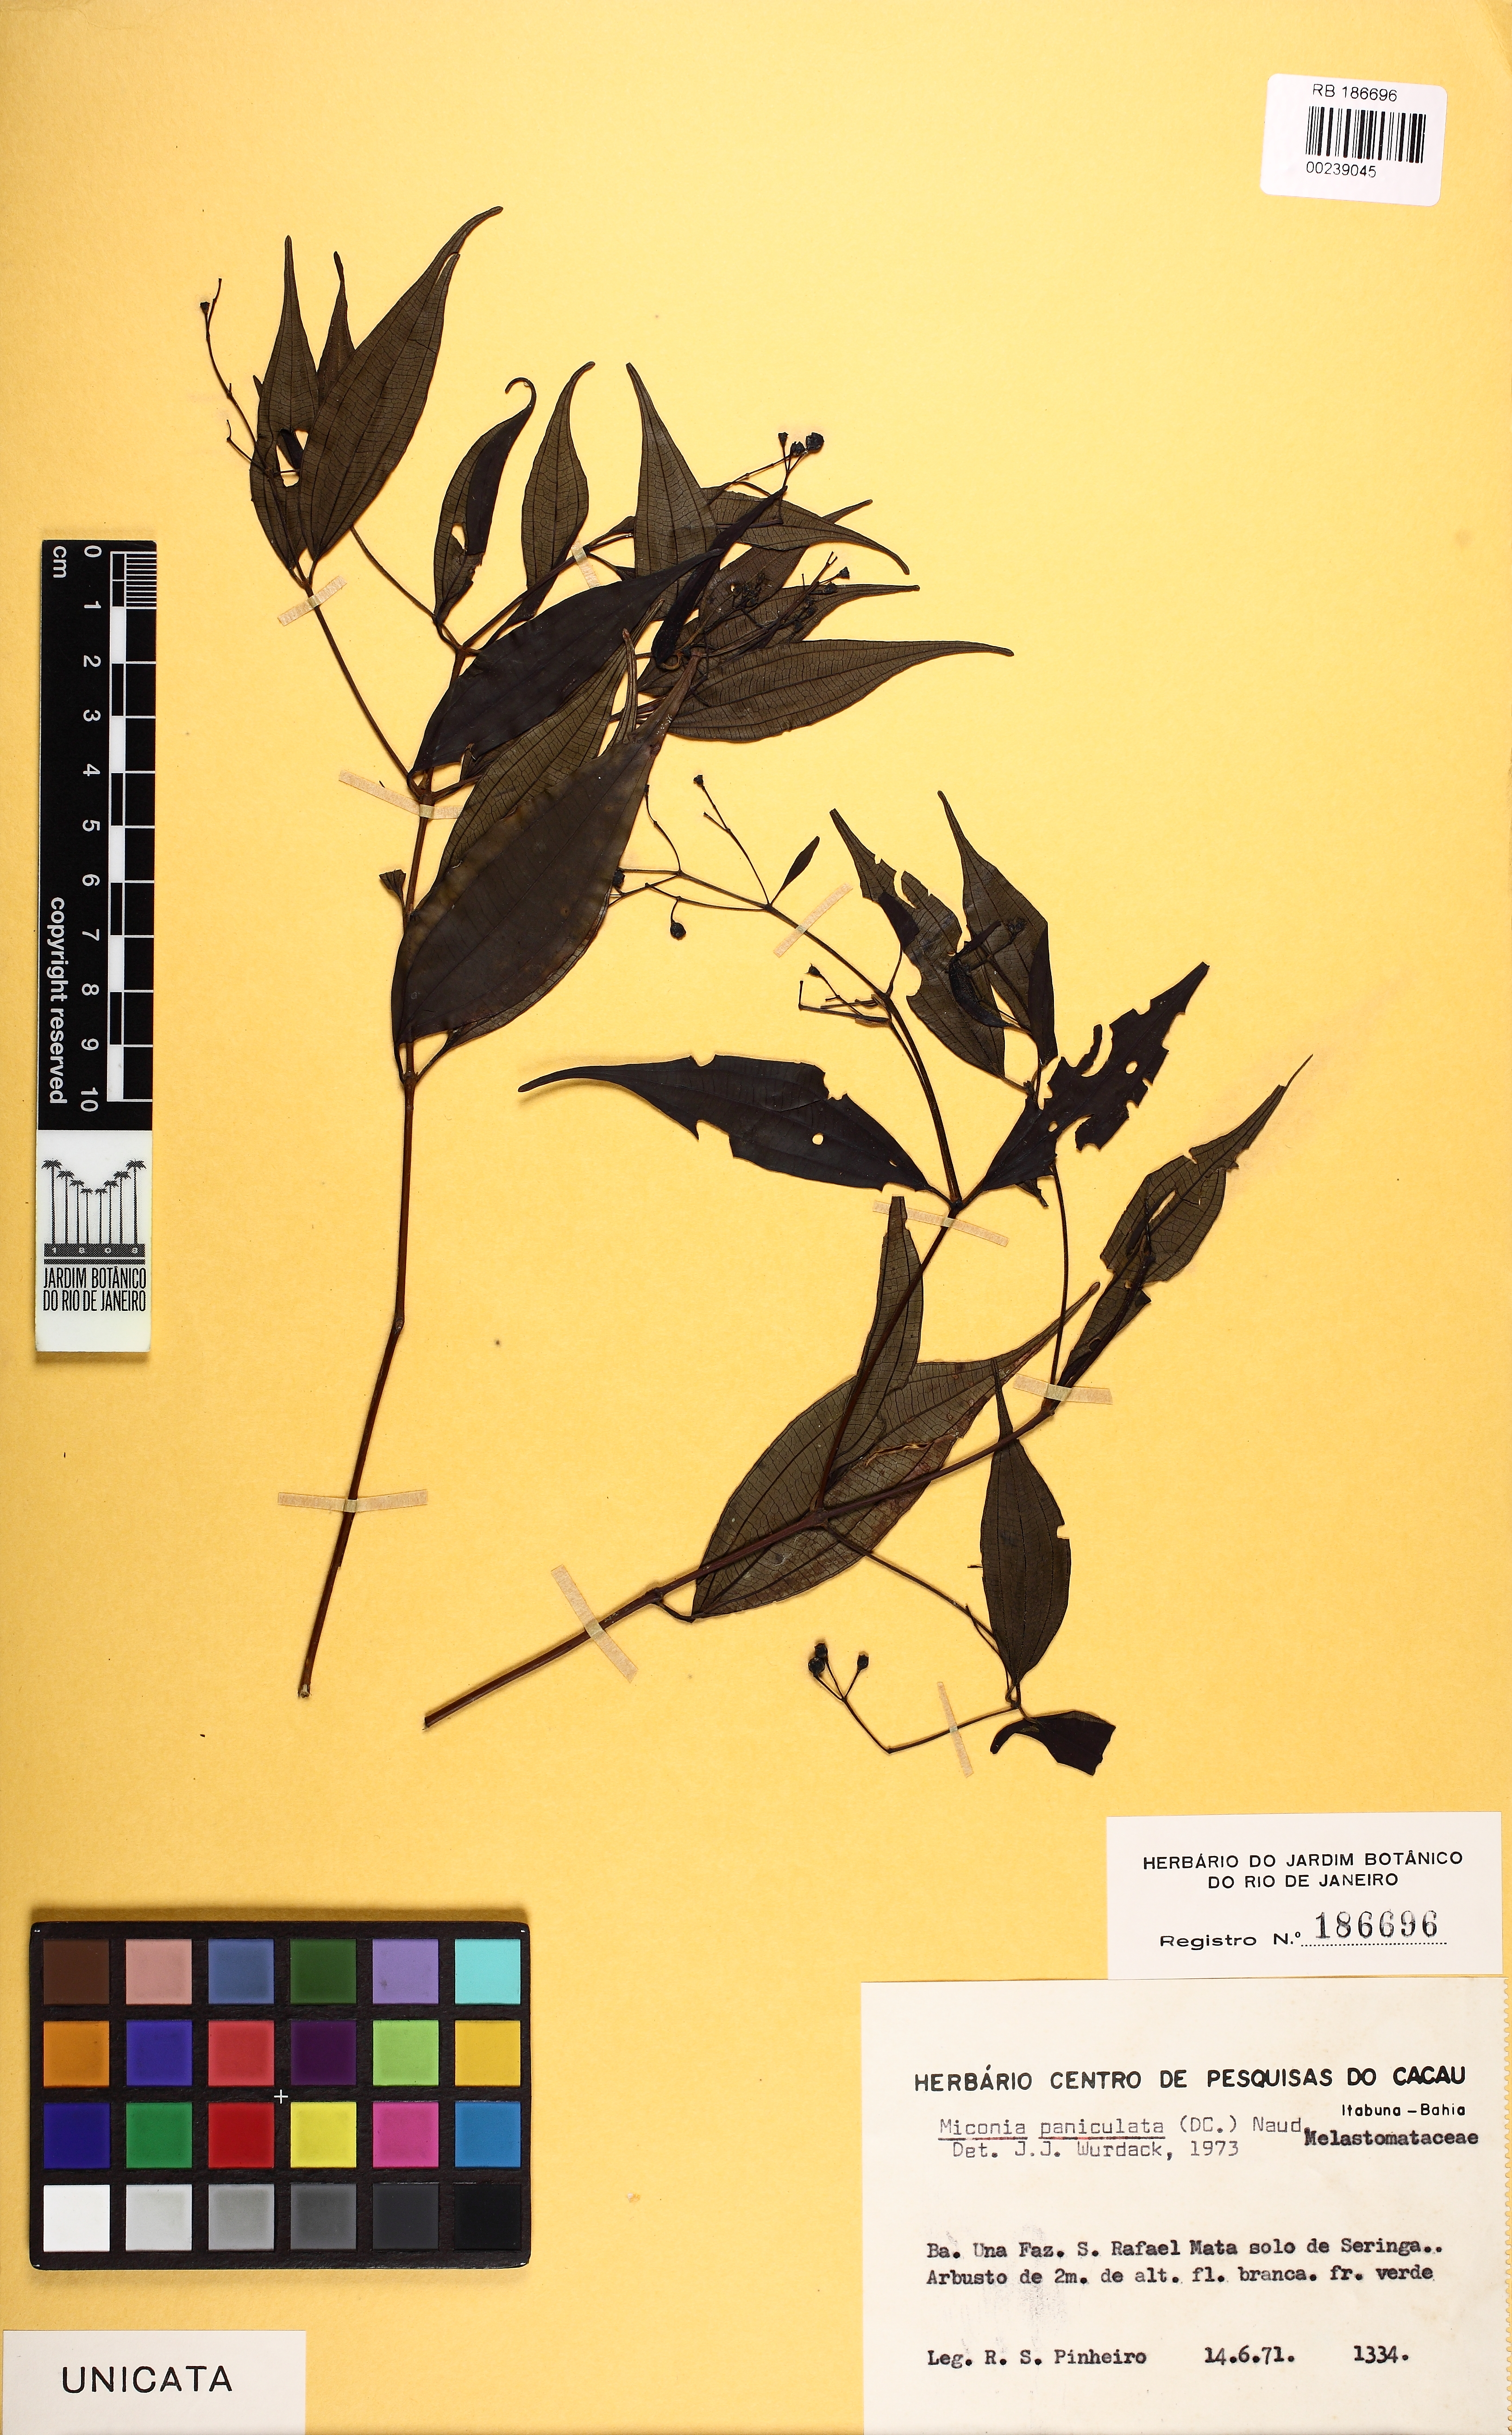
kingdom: Plantae
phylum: Tracheophyta
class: Magnoliopsida
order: Myrtales
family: Melastomataceae
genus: Miconia
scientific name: Miconia paniculata
